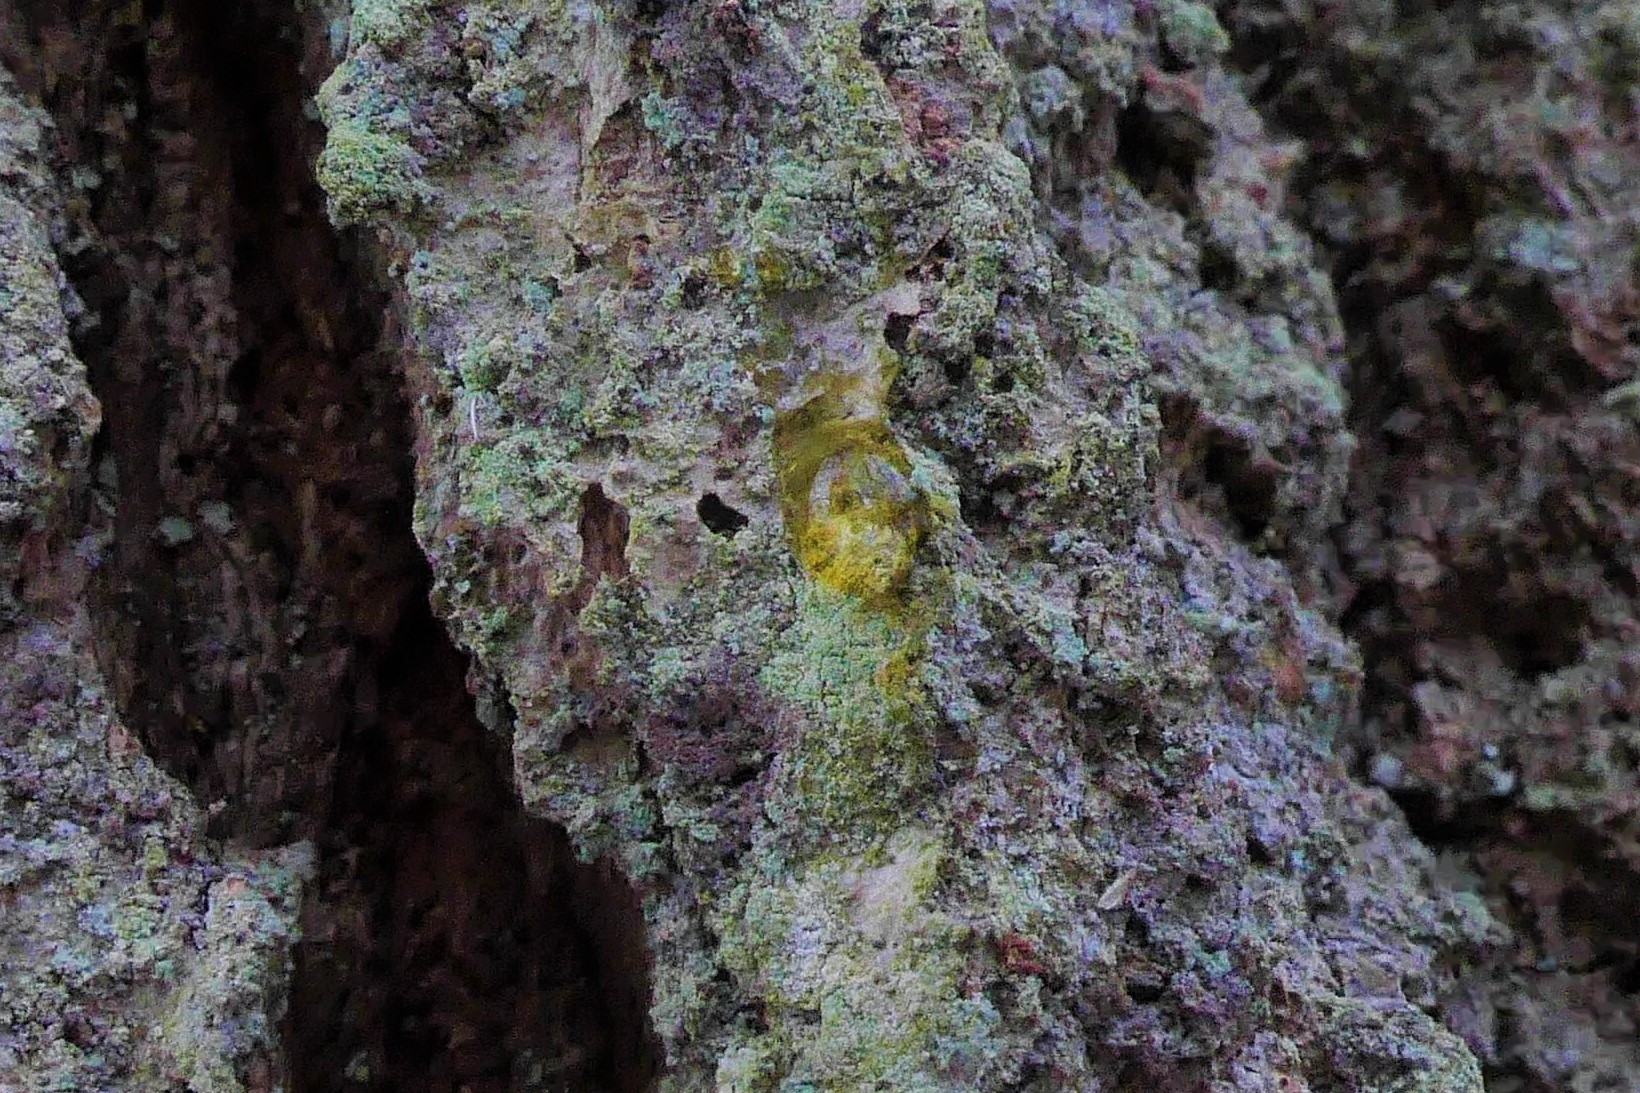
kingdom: Fungi
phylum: Ascomycota
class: Lecanoromycetes
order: Lecanorales
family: Lecanoraceae
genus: Lecanora
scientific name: Lecanora expallens
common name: bleggul kantskivelav
